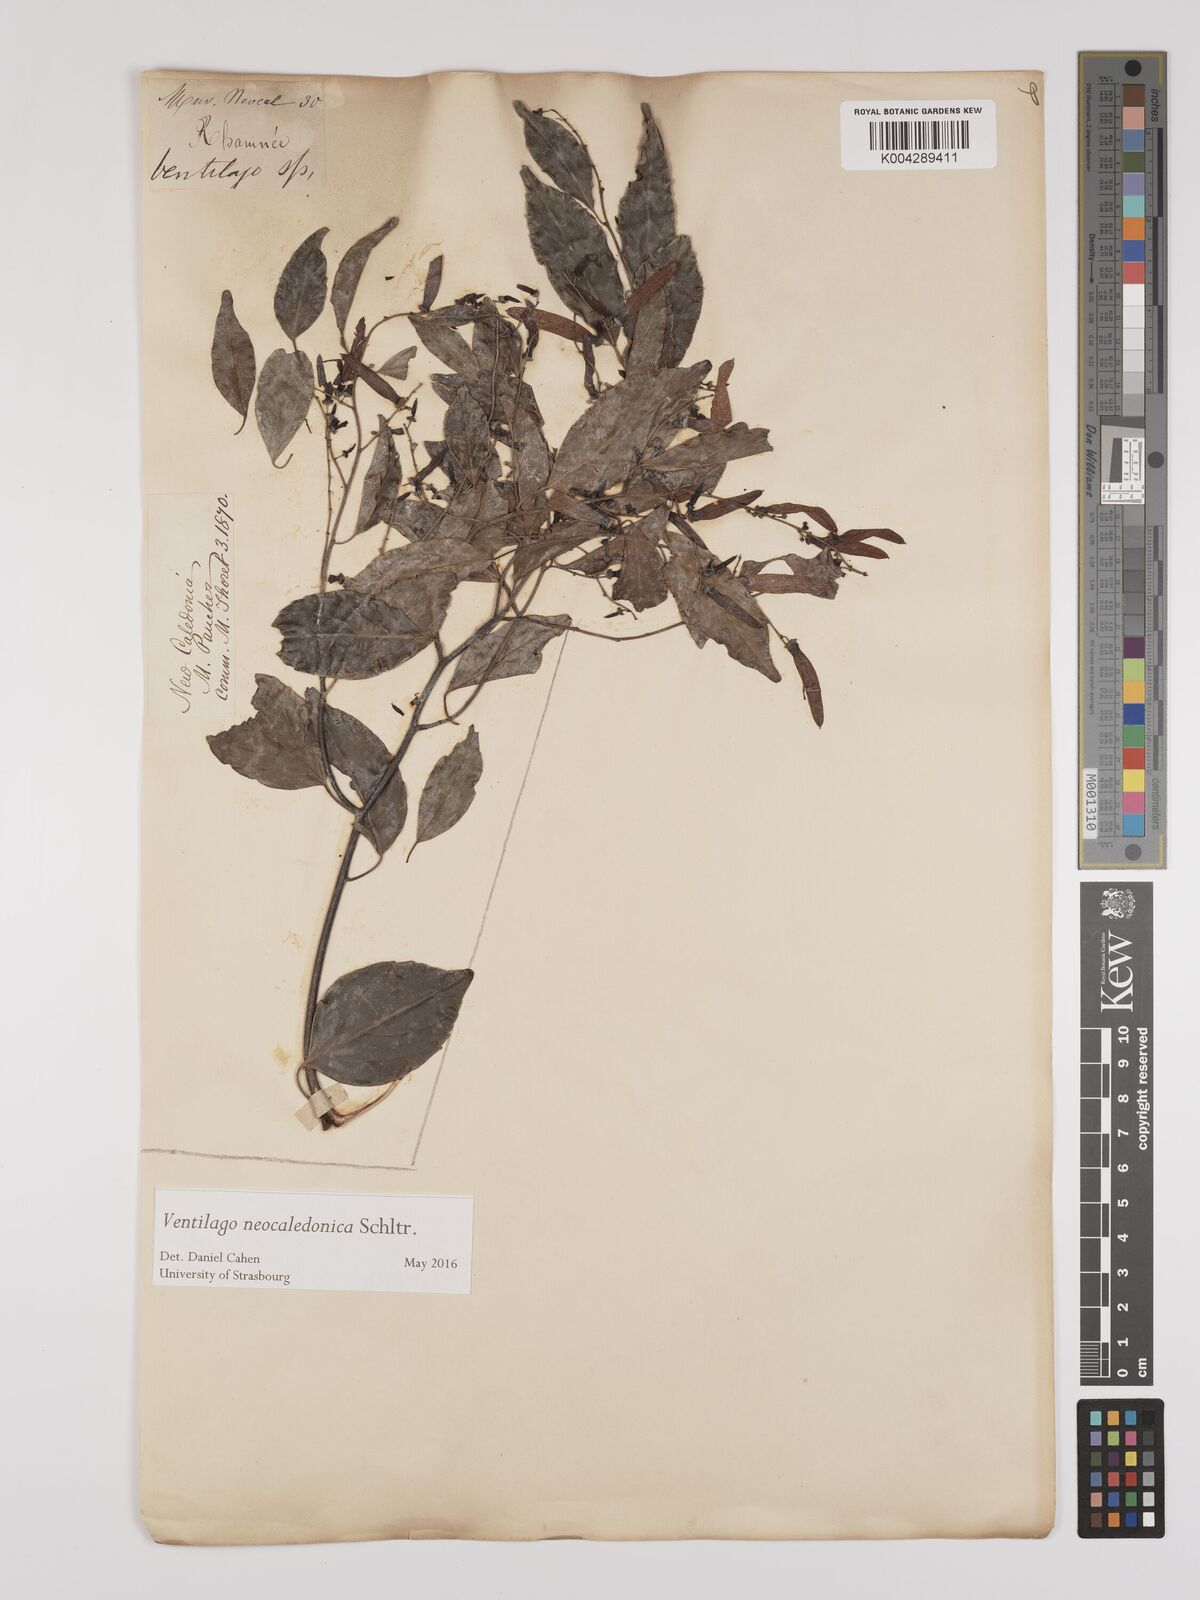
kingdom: Plantae
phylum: Tracheophyta
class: Magnoliopsida
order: Rosales
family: Rhamnaceae
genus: Ventilago
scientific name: Ventilago neocaledonica
